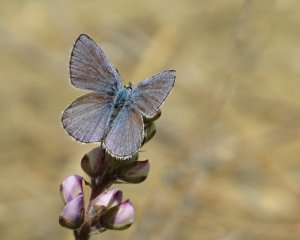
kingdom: Animalia
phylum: Arthropoda
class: Insecta
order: Lepidoptera
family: Lycaenidae
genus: Plebejus
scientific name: Plebejus samuelis
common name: Karner Blue
